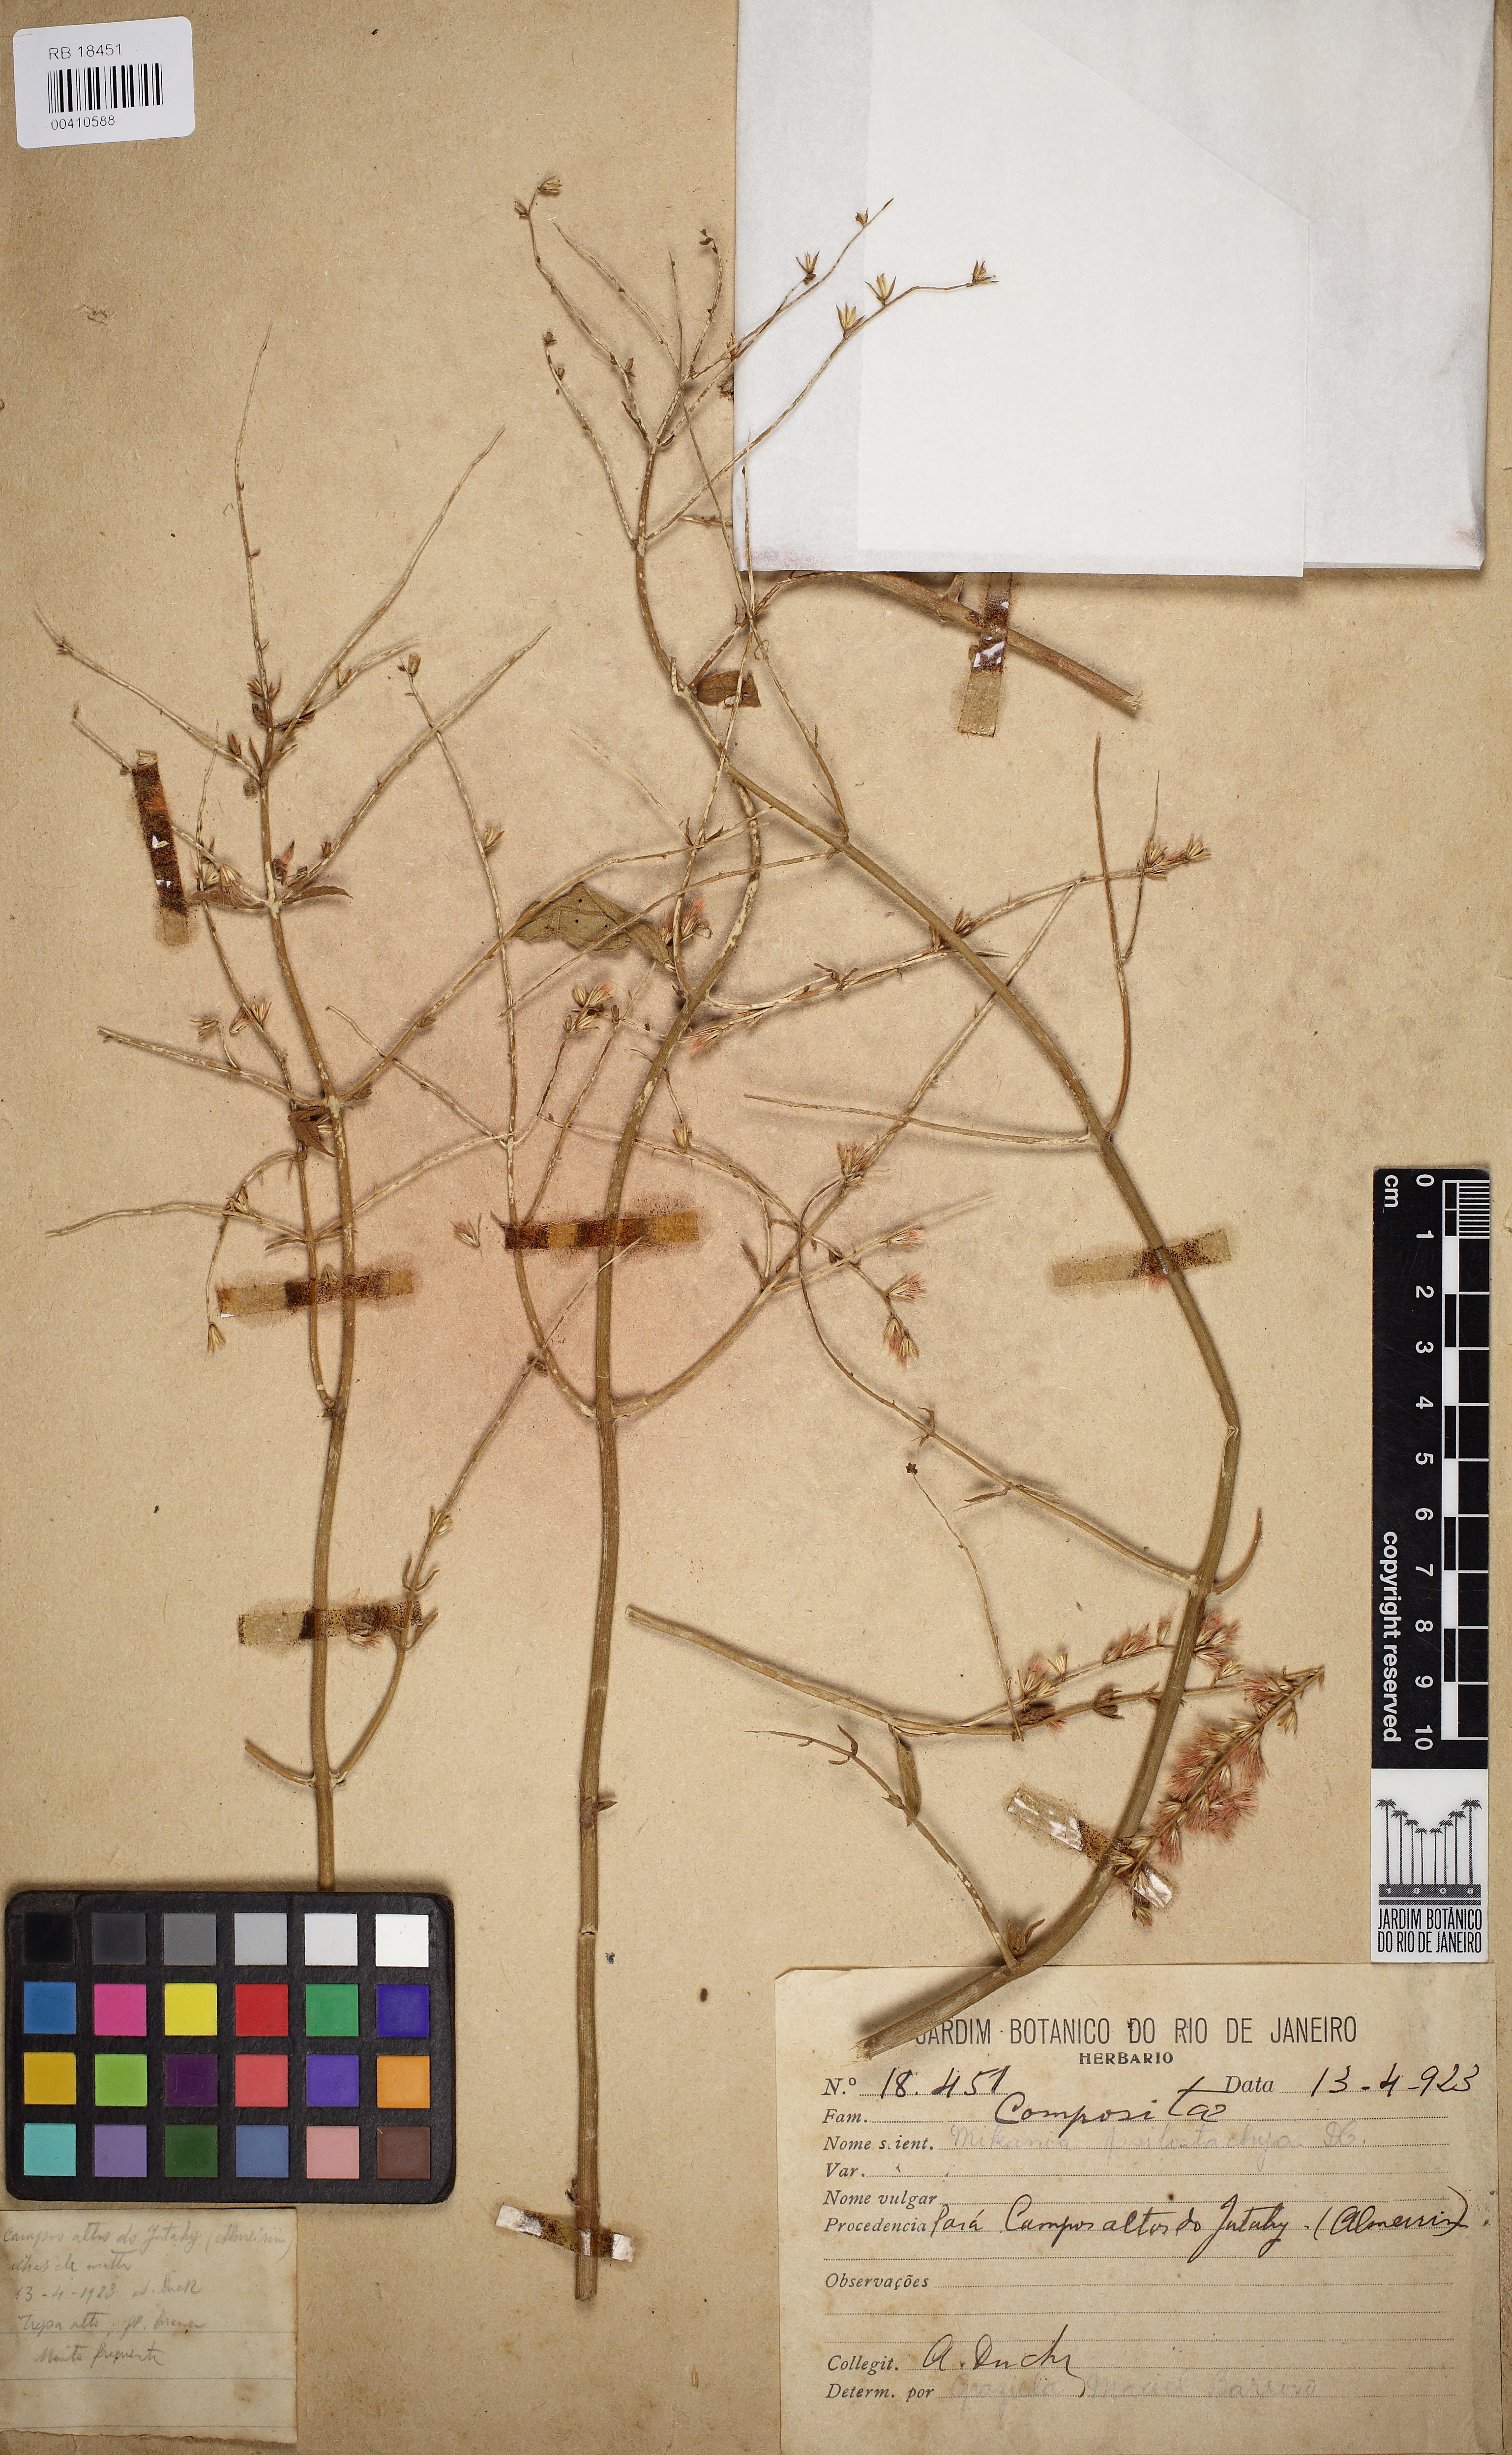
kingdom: Plantae
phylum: Tracheophyta
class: Magnoliopsida
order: Asterales
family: Asteraceae
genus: Mikania
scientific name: Mikania psilostachya
